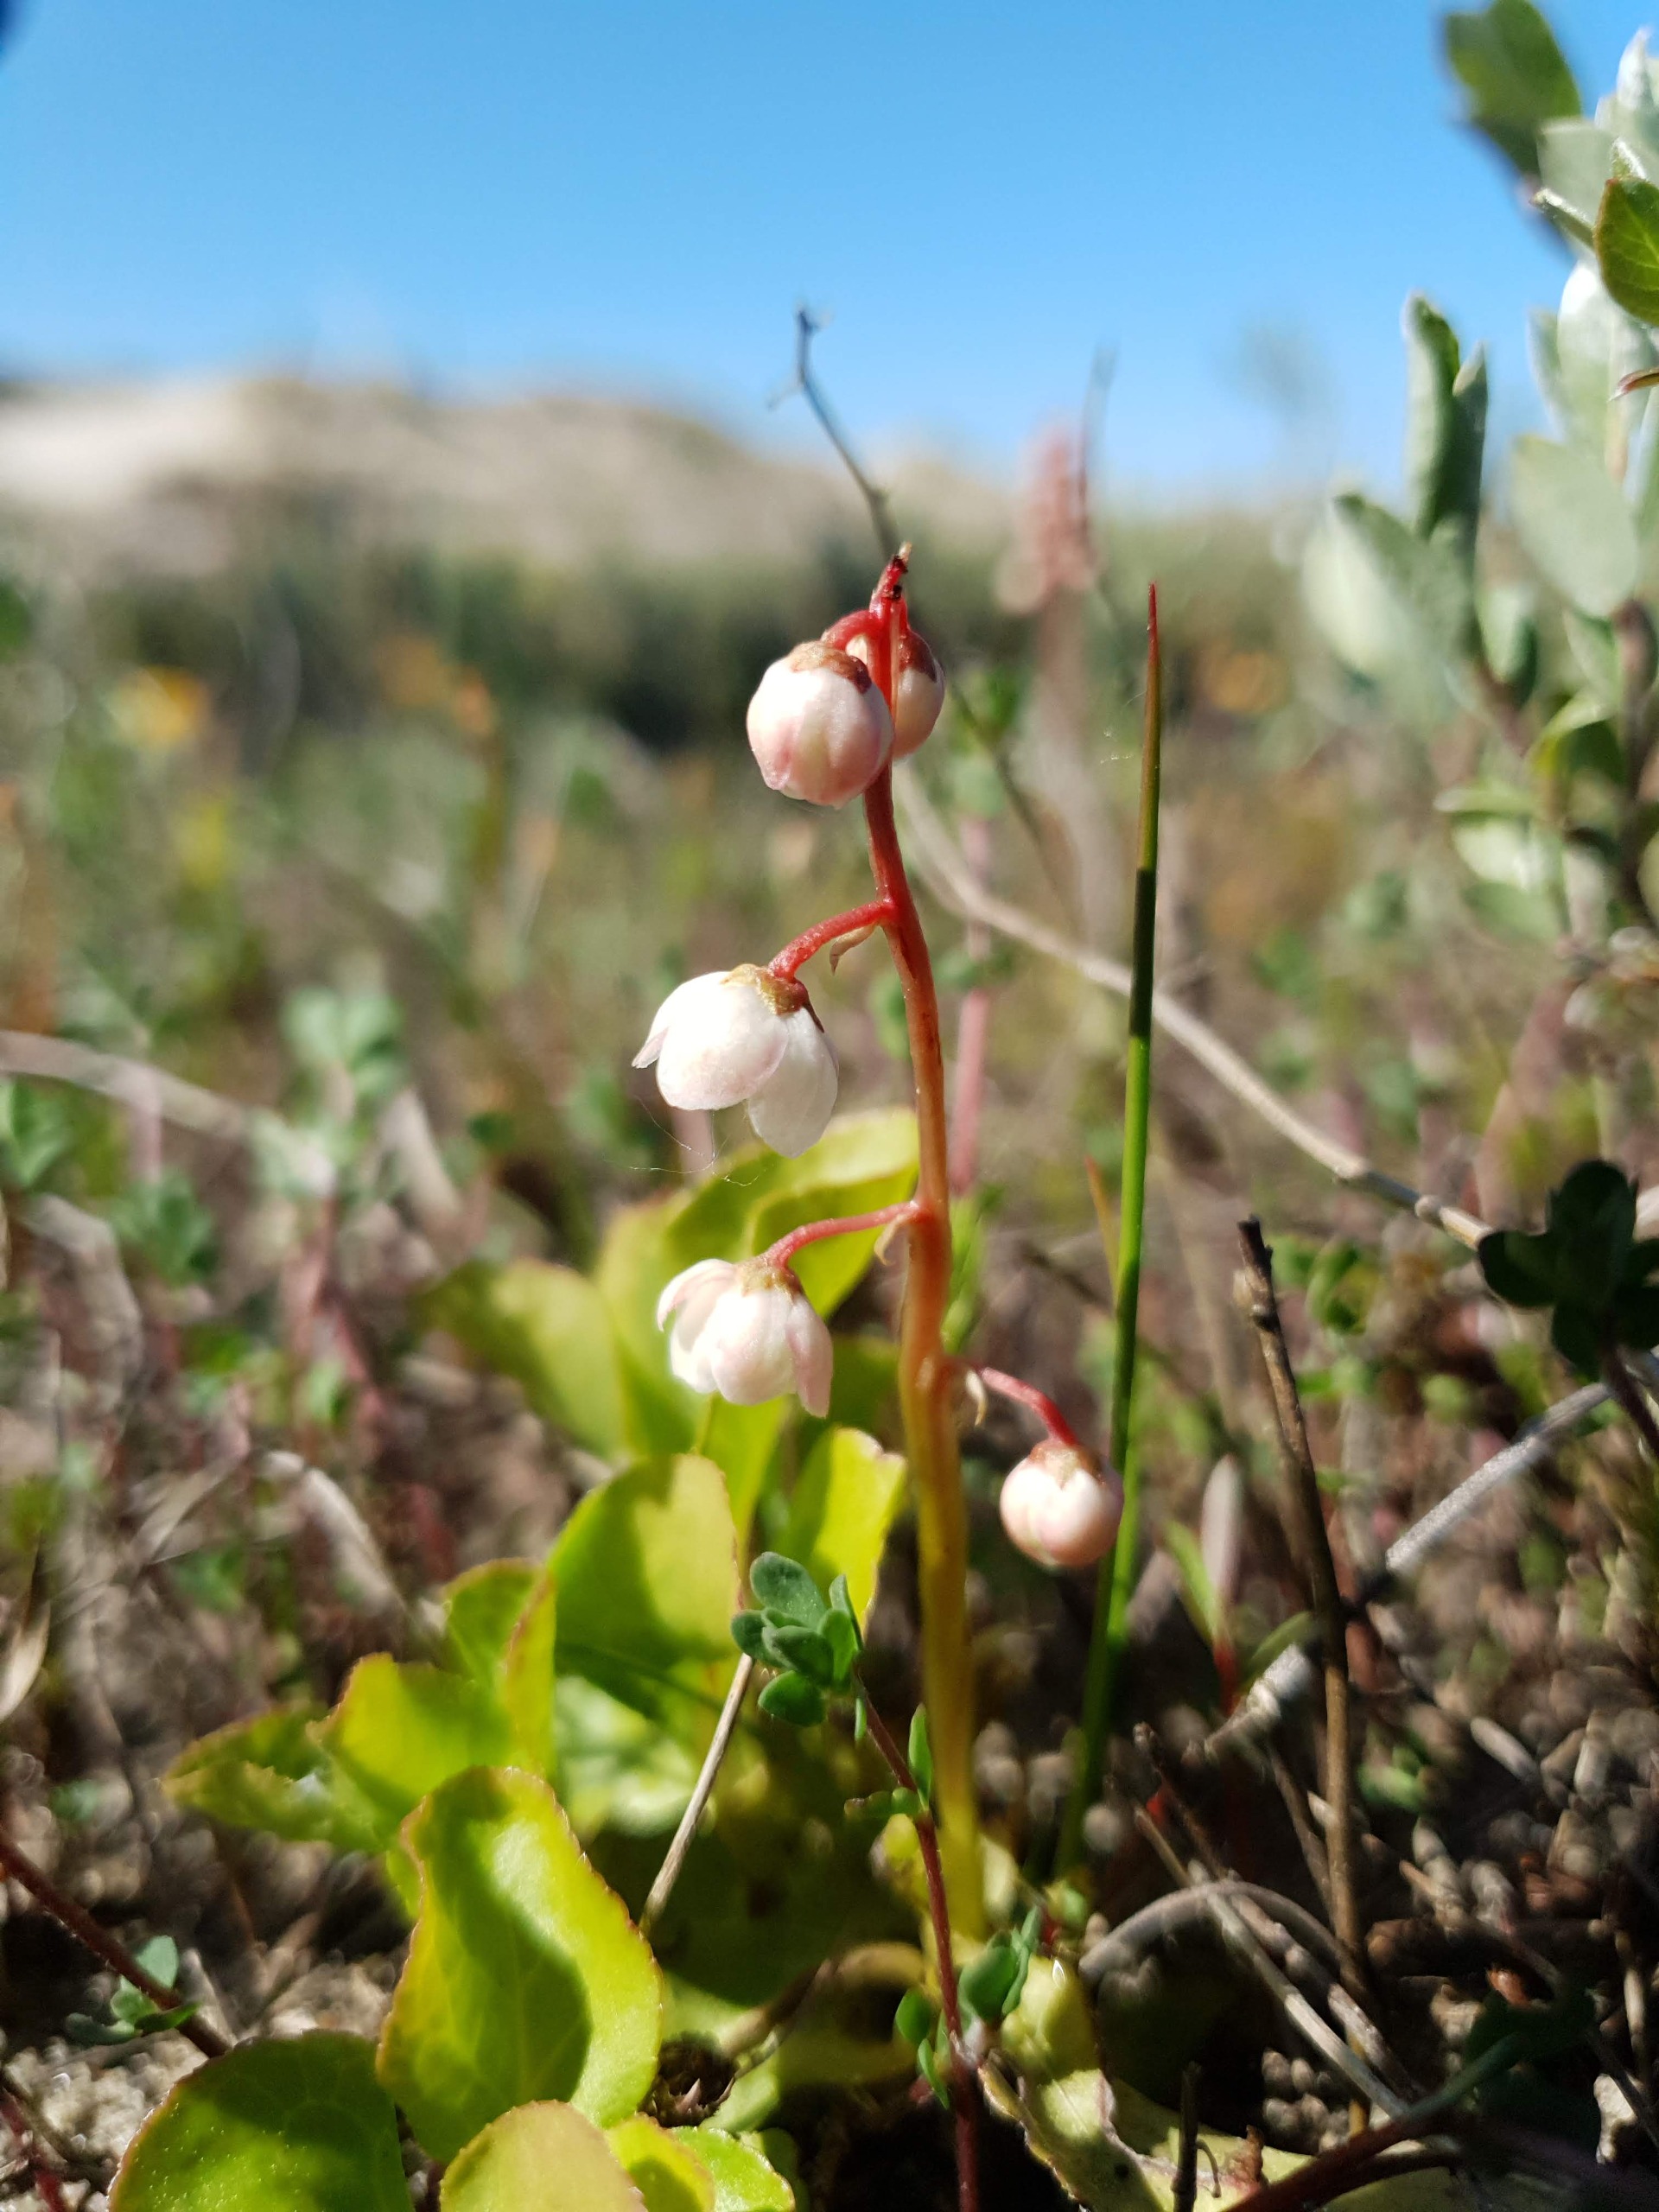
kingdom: Plantae
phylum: Tracheophyta
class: Magnoliopsida
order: Ericales
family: Ericaceae
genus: Pyrola
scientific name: Pyrola minor
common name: Liden vintergrøn
